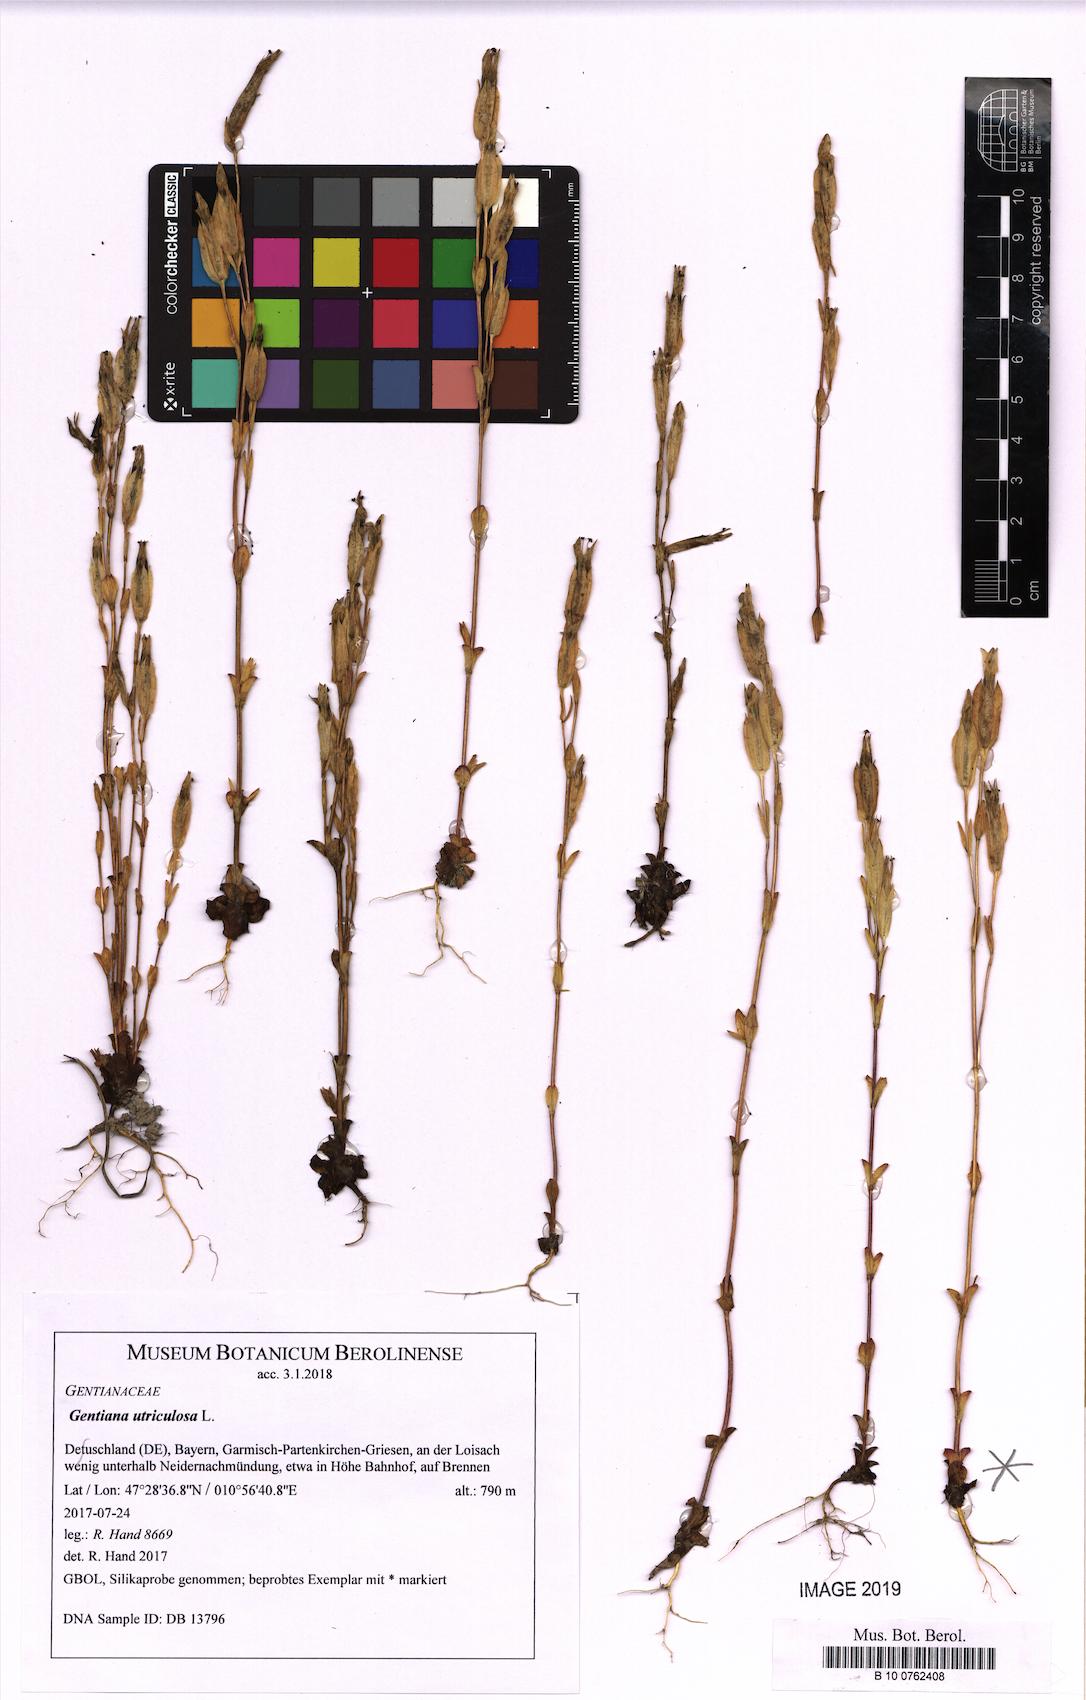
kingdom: Plantae
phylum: Tracheophyta
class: Magnoliopsida
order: Gentianales
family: Gentianaceae
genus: Gentiana
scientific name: Gentiana utriculosa
